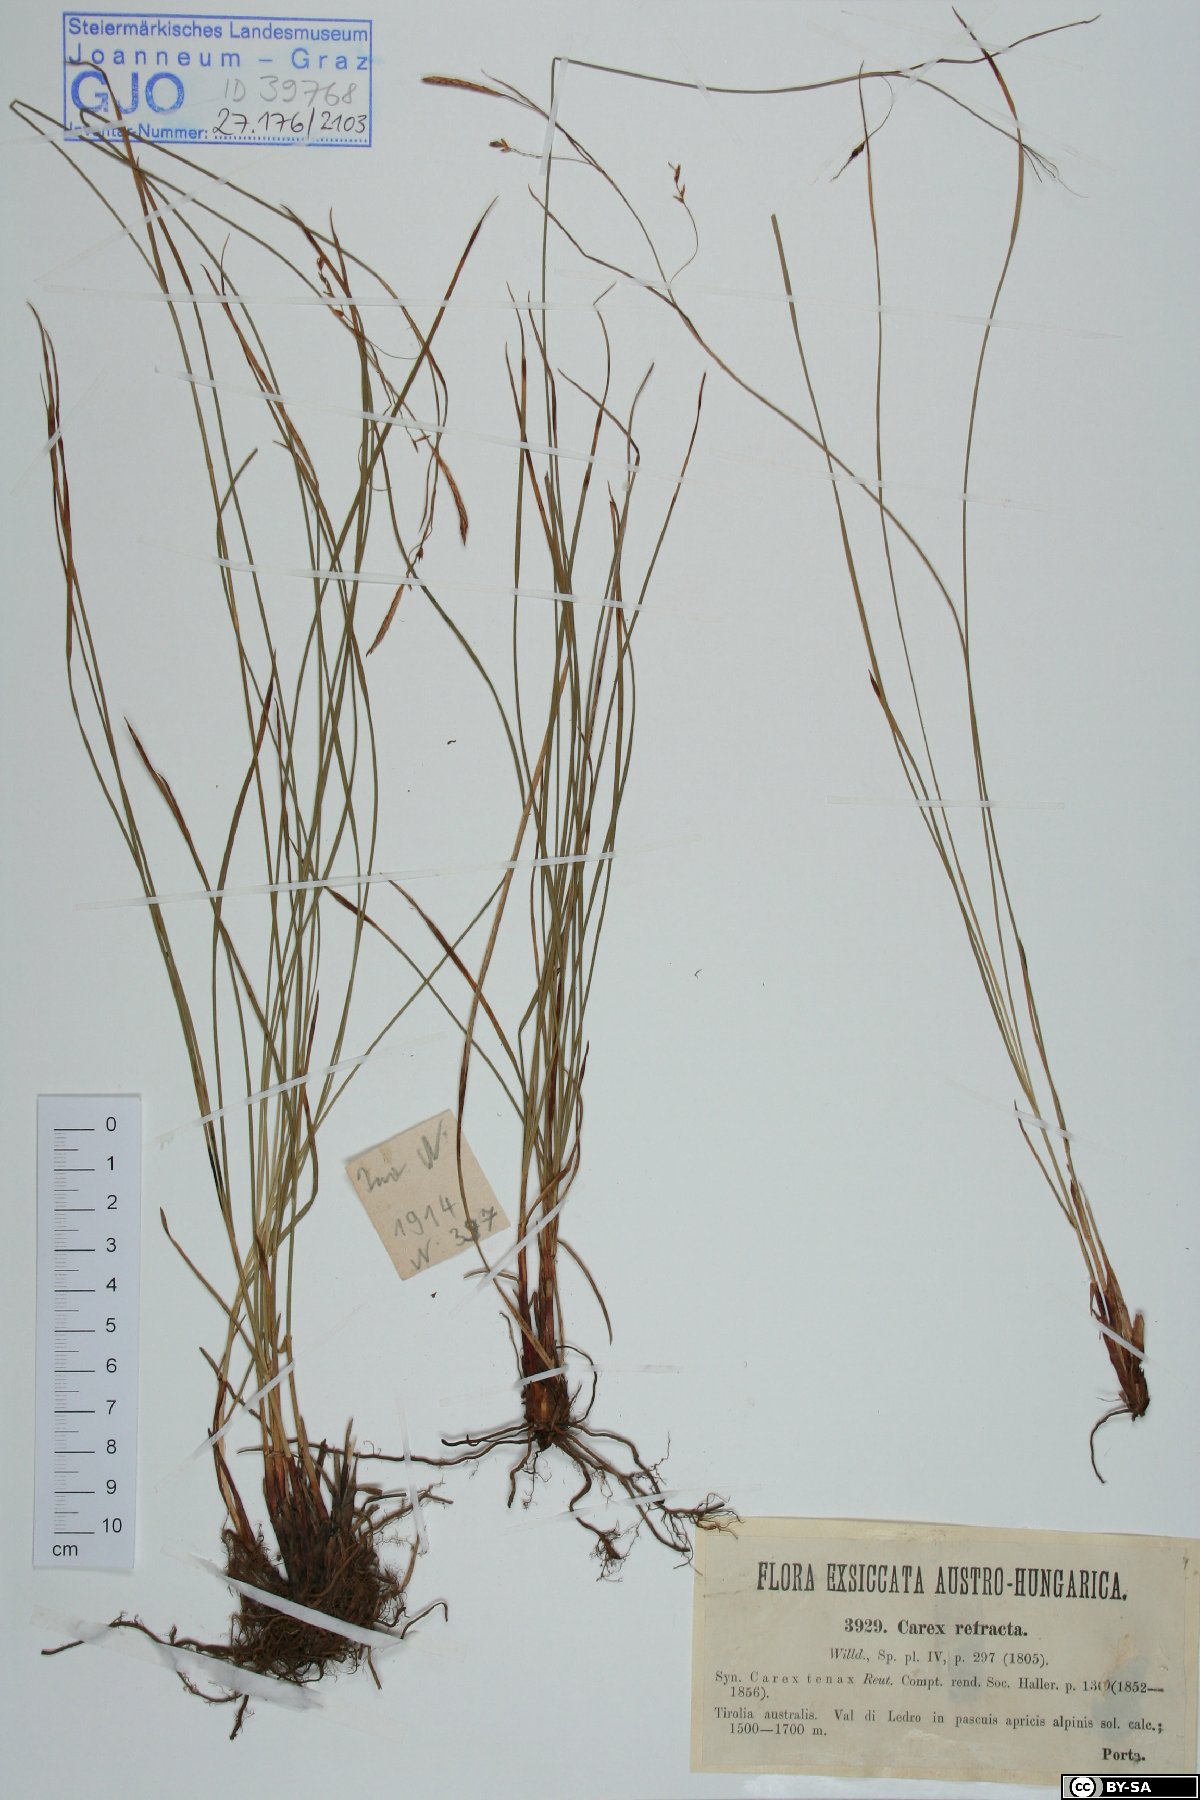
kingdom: Plantae
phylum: Tracheophyta
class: Liliopsida
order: Poales
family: Cyperaceae
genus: Carex
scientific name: Carex austroalpina
